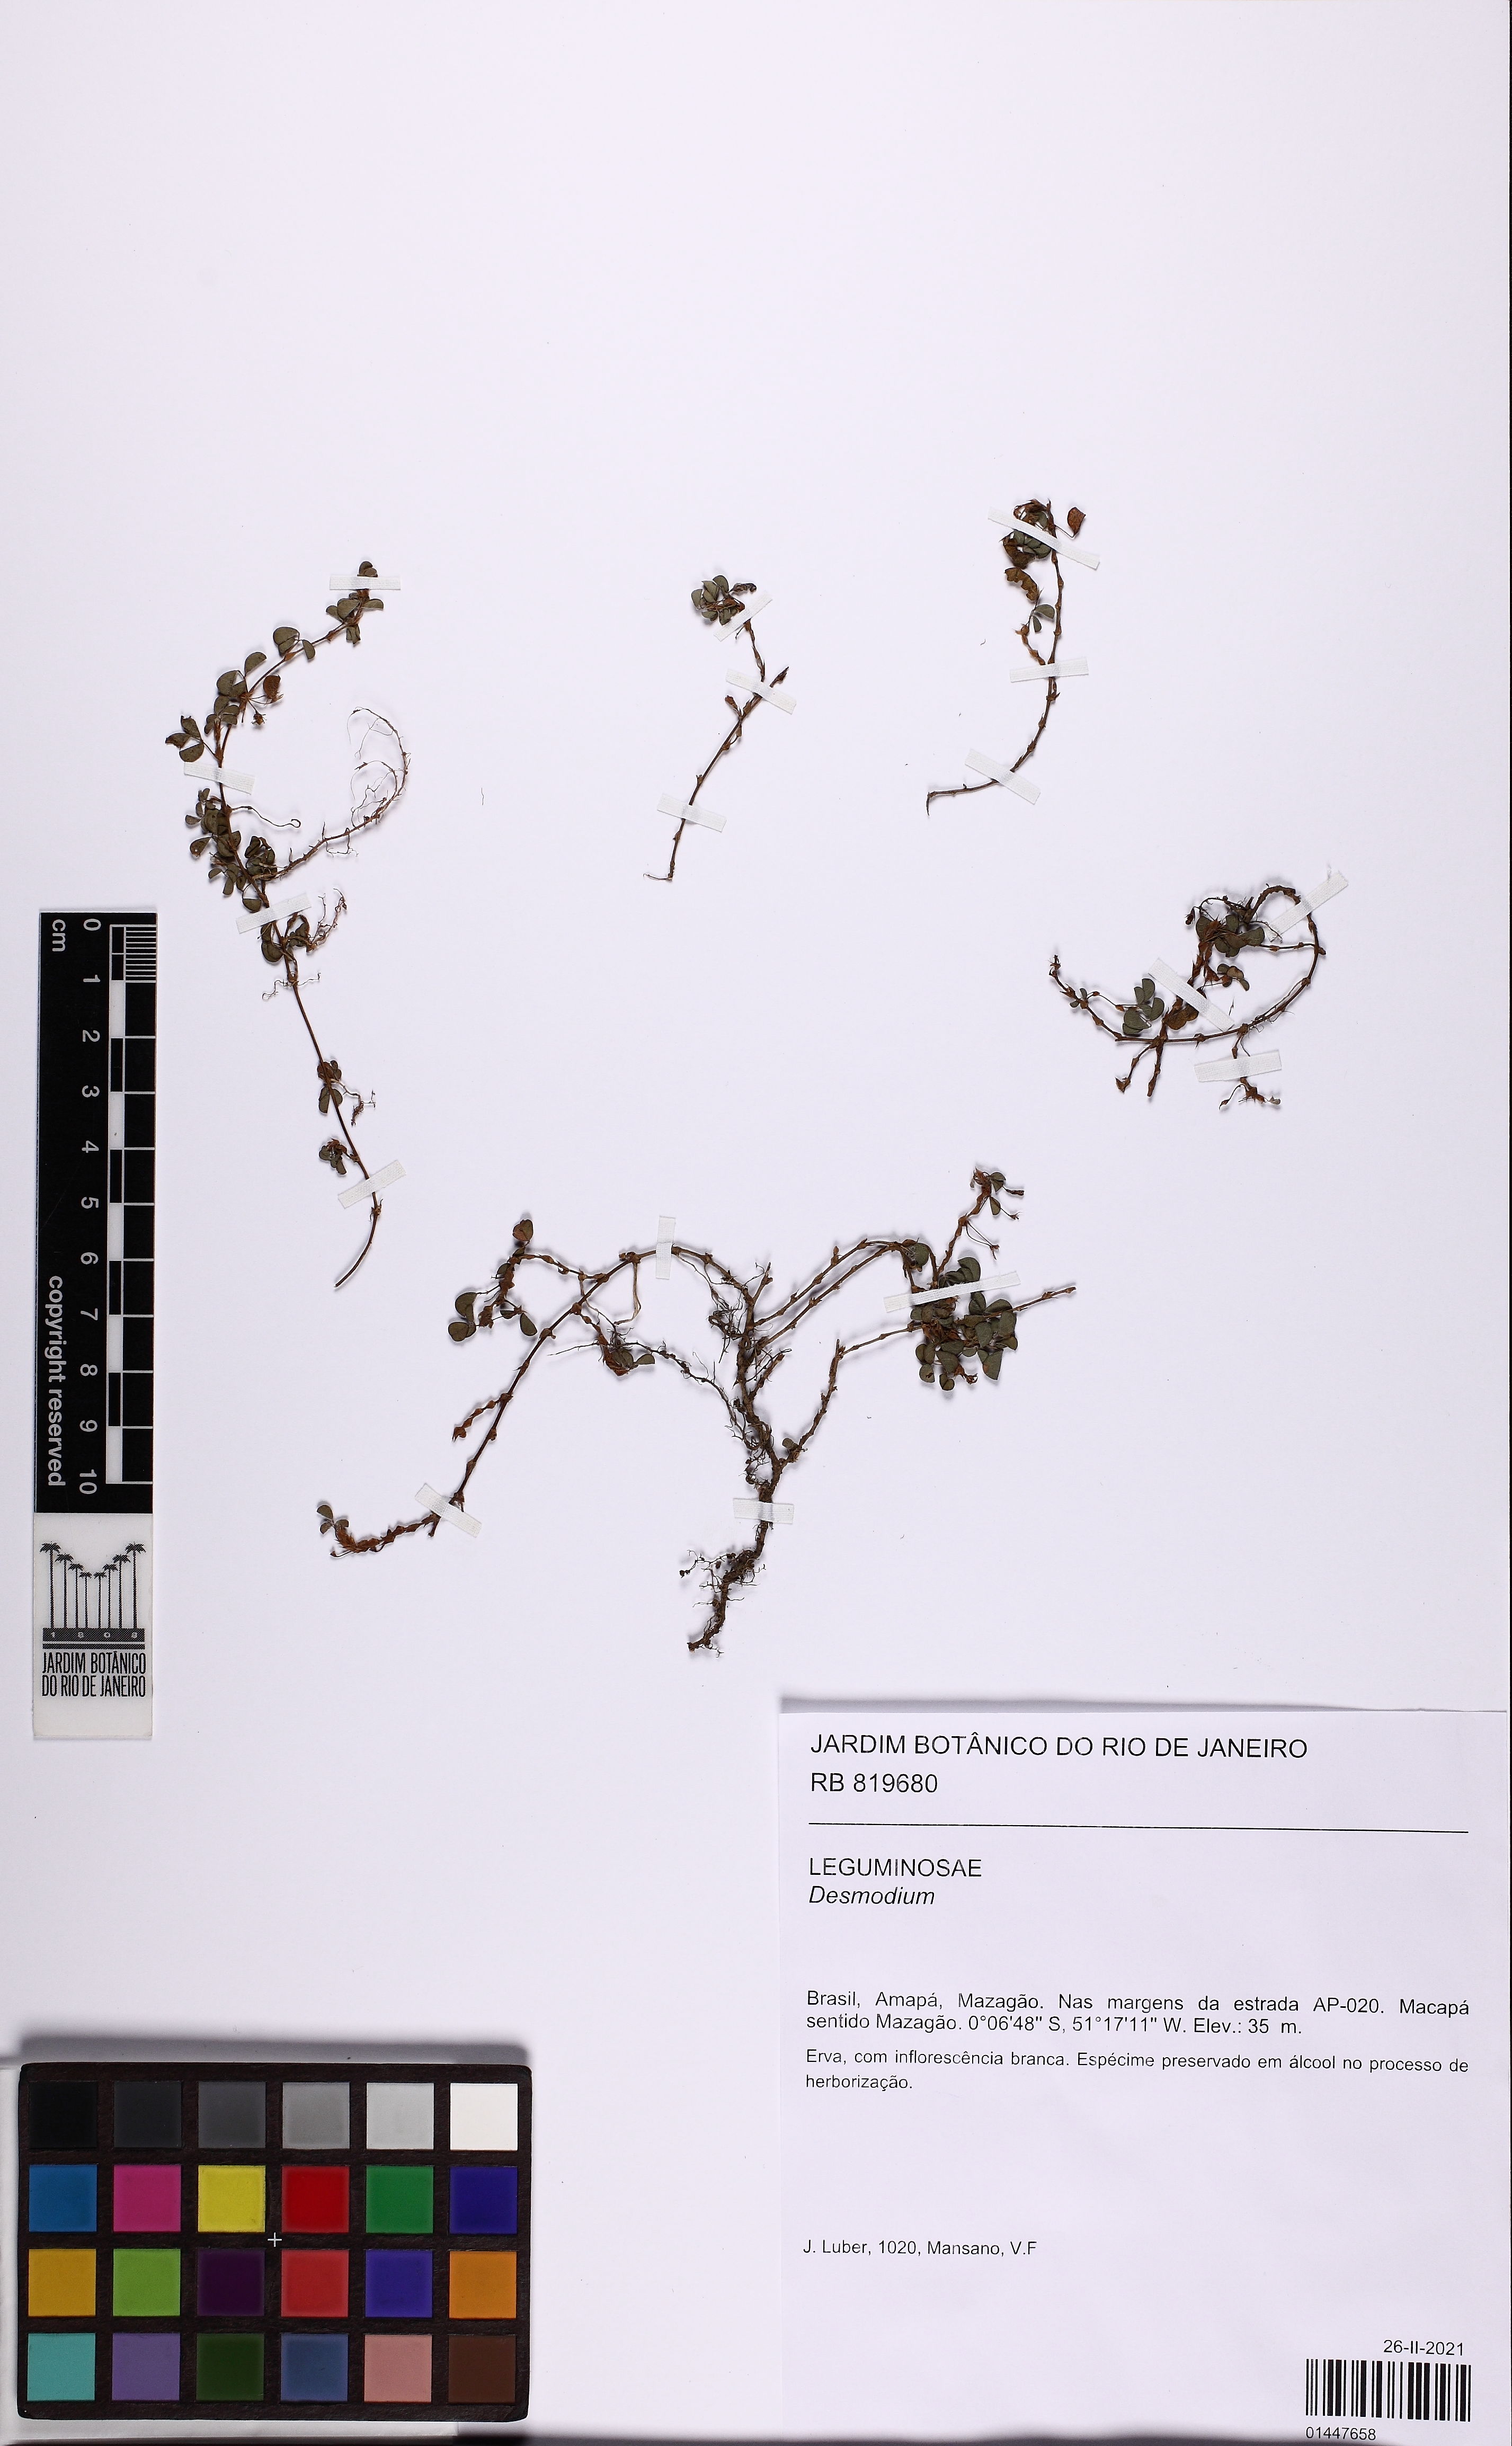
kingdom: Plantae
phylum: Tracheophyta
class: Magnoliopsida
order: Fabales
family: Fabaceae
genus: Grona
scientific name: Grona triflora
